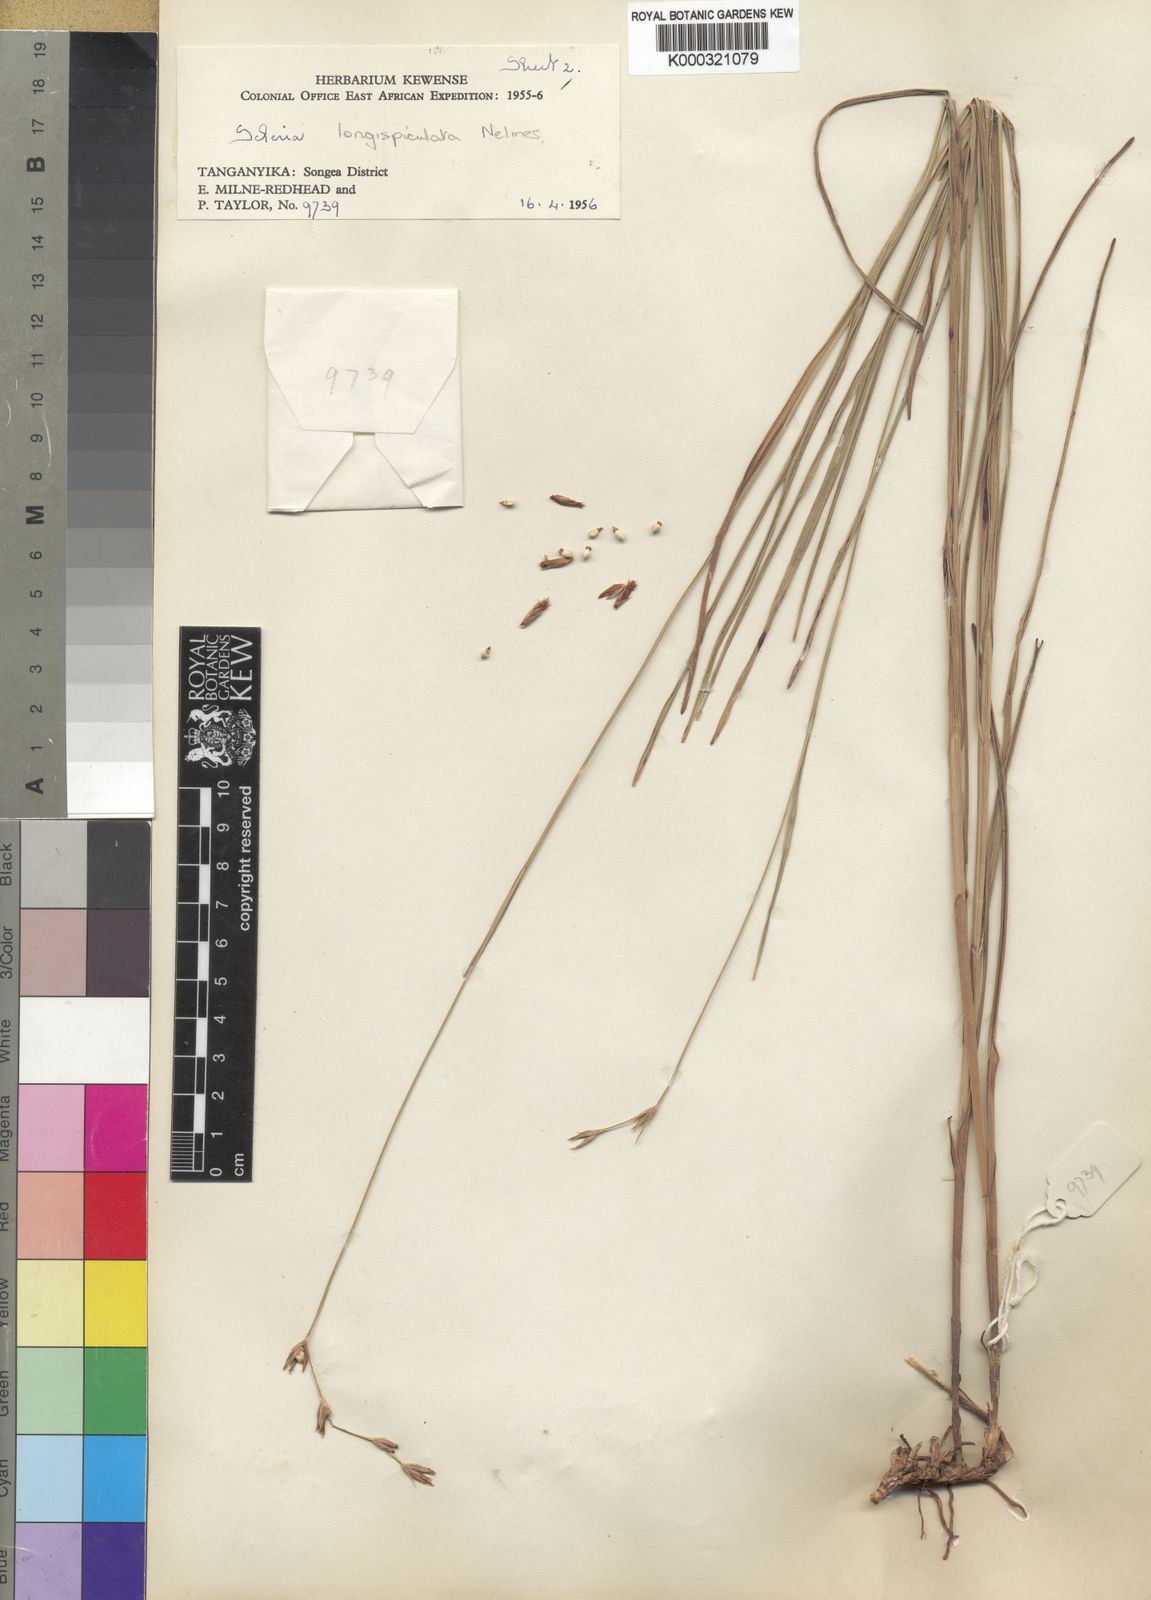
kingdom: Plantae
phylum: Tracheophyta
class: Liliopsida
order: Poales
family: Cyperaceae
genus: Scleria
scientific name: Scleria longispiculata
